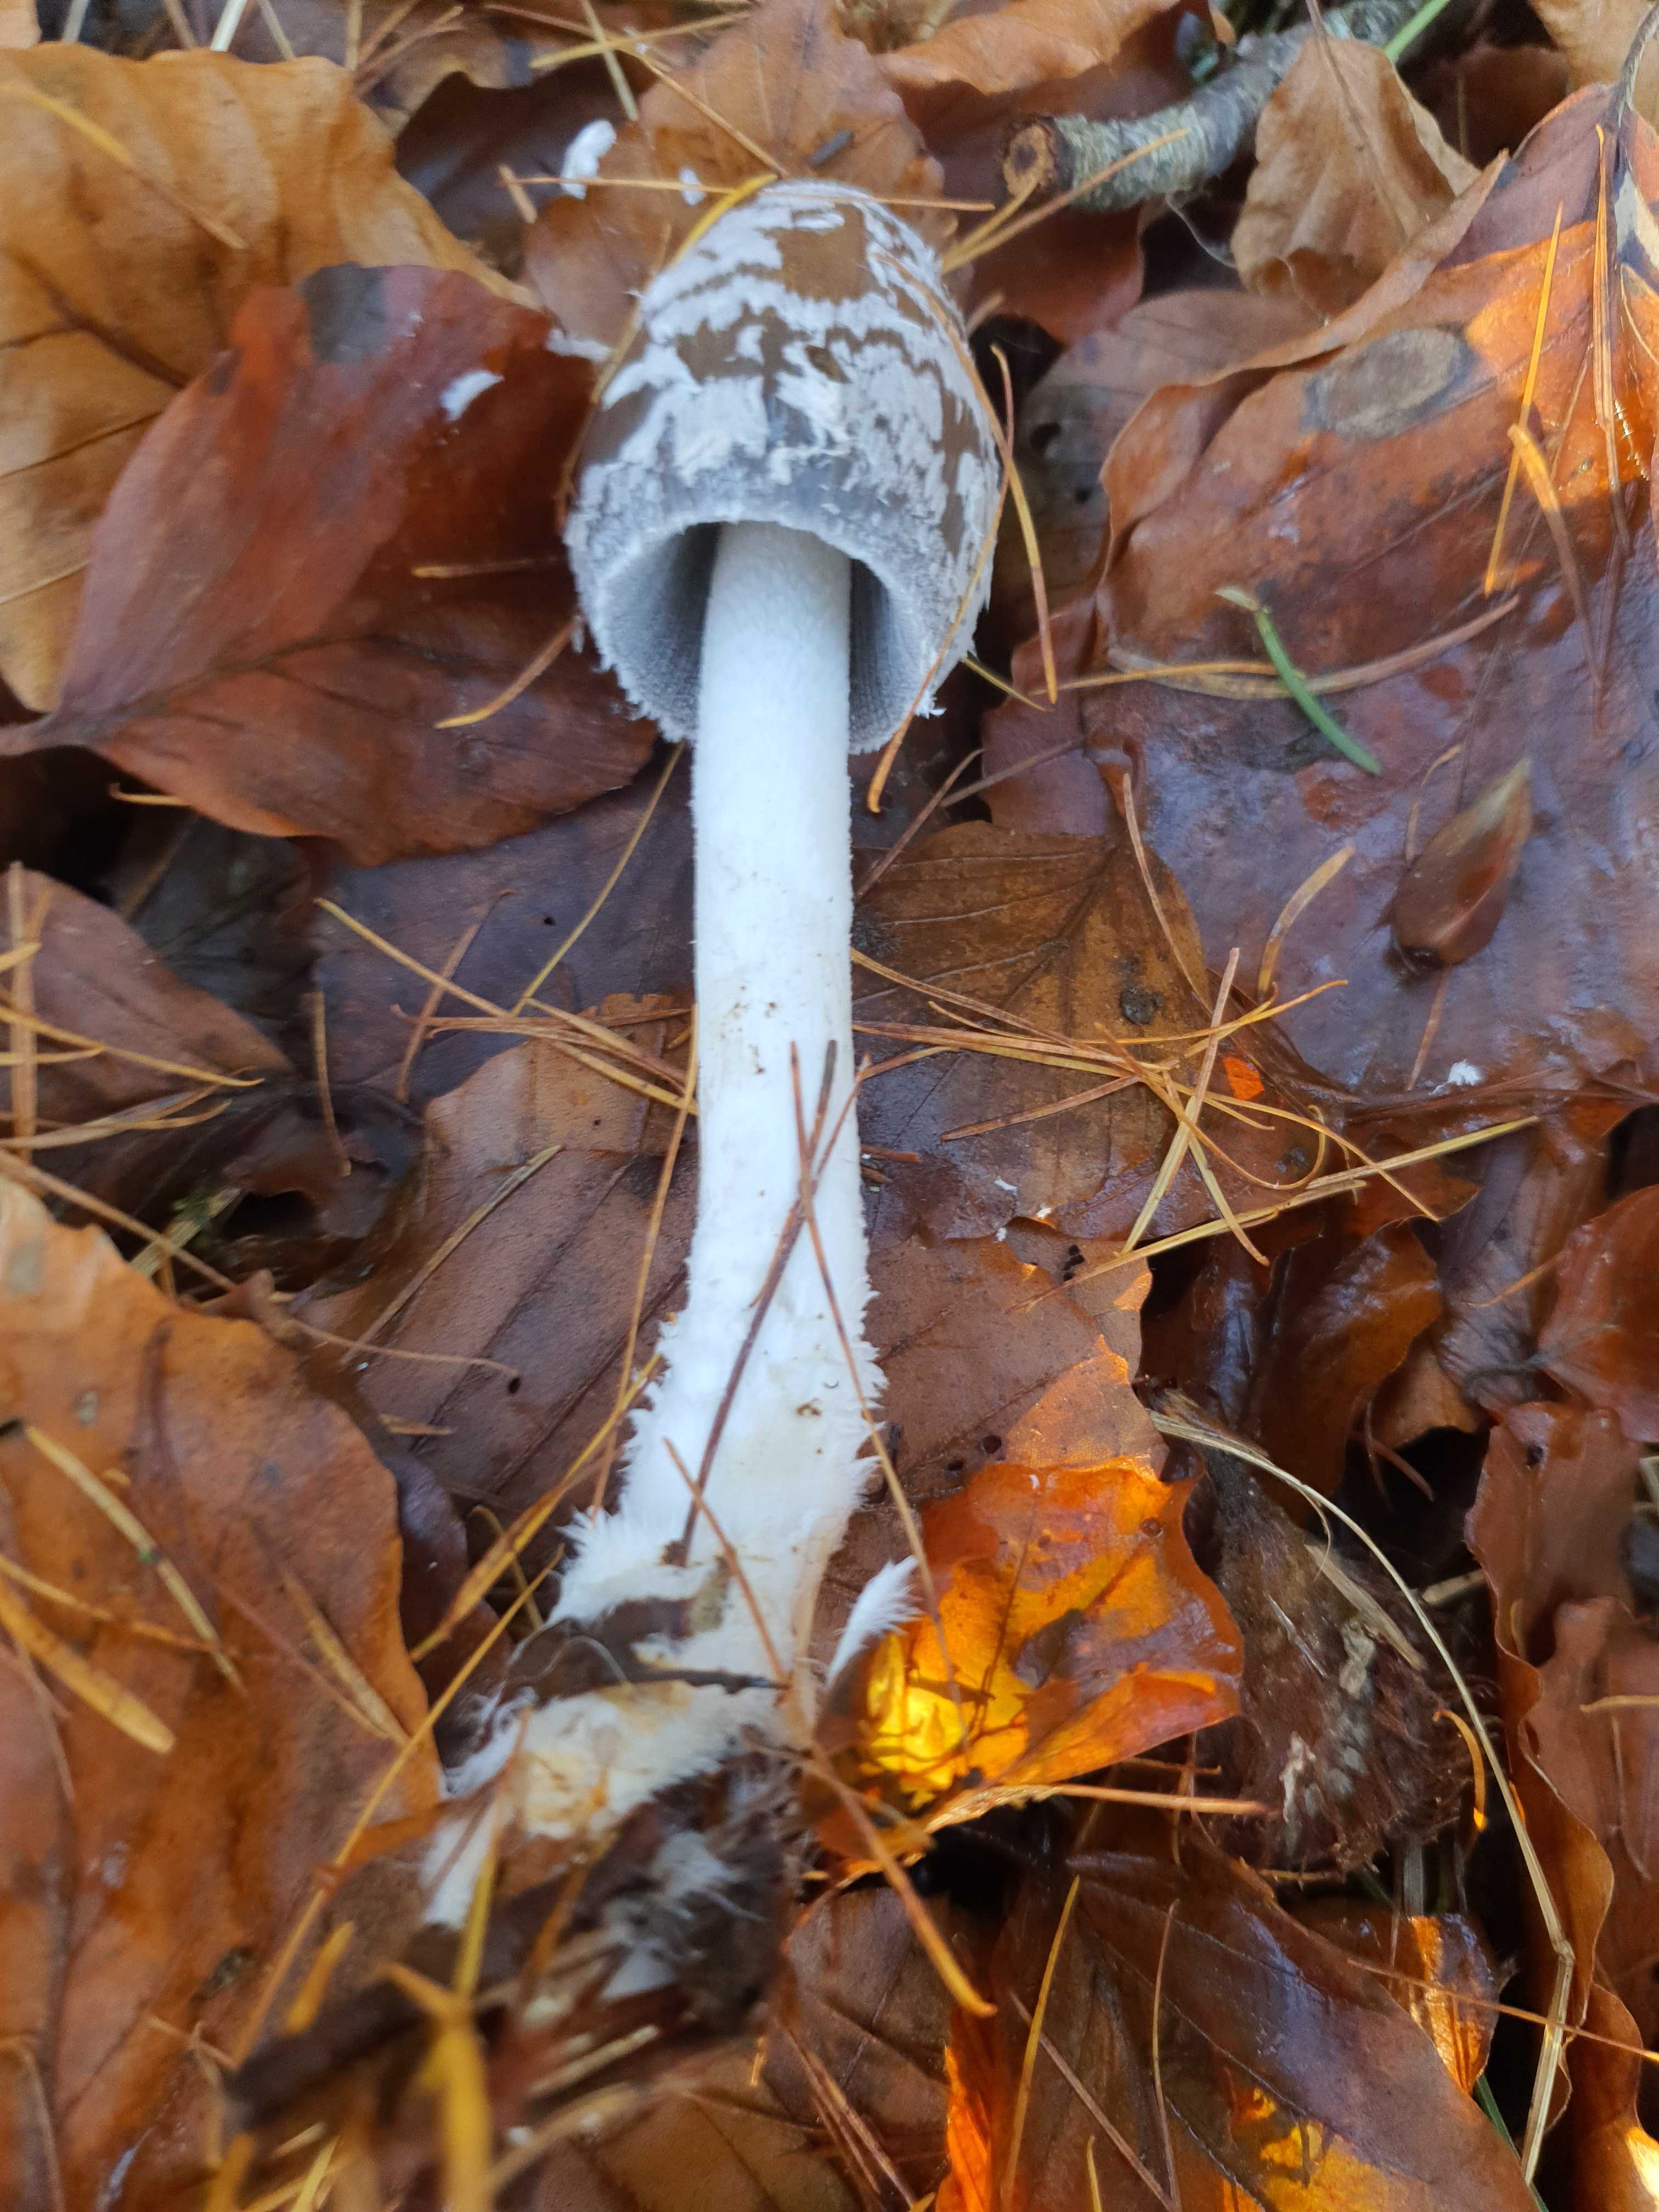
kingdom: Fungi
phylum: Basidiomycota
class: Agaricomycetes
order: Agaricales
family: Psathyrellaceae
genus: Coprinopsis
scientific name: Coprinopsis picacea
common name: skade-blækhat
